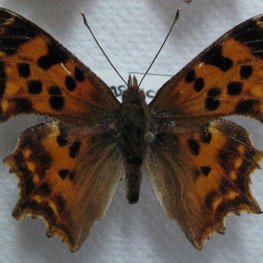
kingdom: Animalia
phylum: Arthropoda
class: Insecta
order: Lepidoptera
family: Nymphalidae
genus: Polygonia
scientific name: Polygonia satyrus
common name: Satyr Comma
